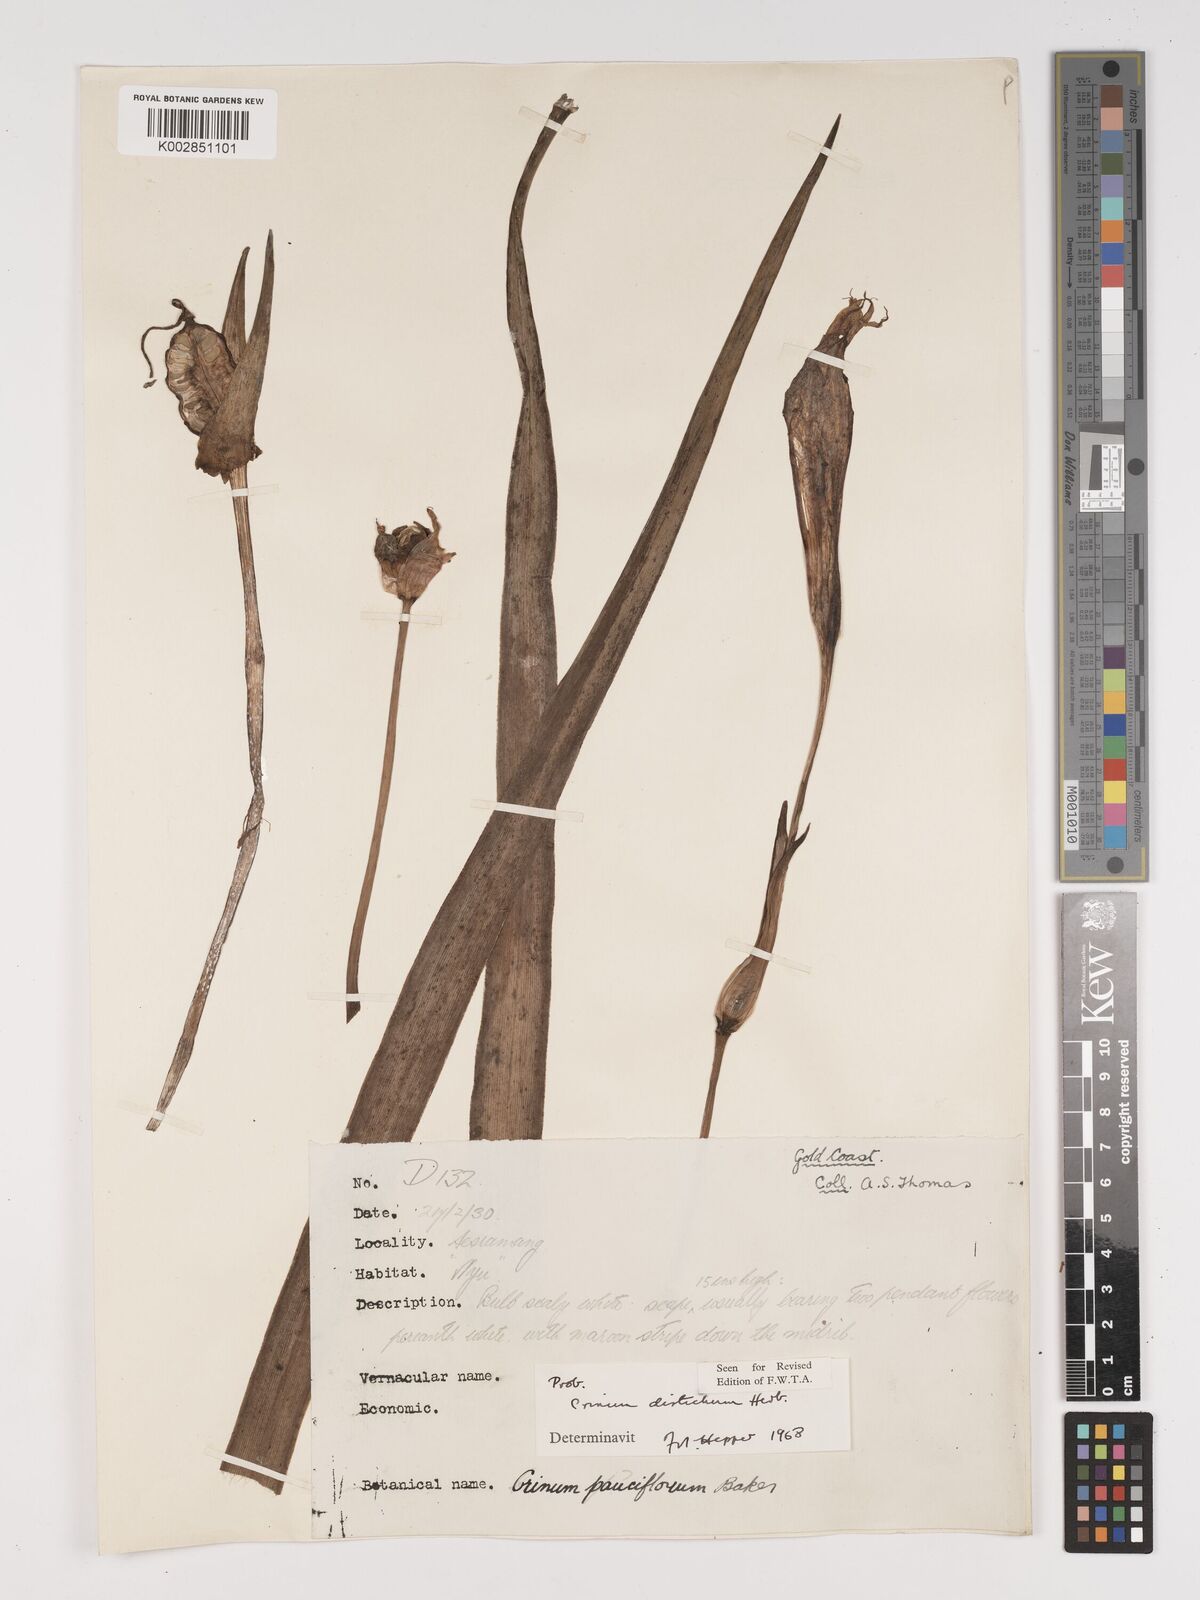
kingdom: Plantae
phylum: Tracheophyta
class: Liliopsida
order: Asparagales
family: Amaryllidaceae
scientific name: Amaryllidaceae
